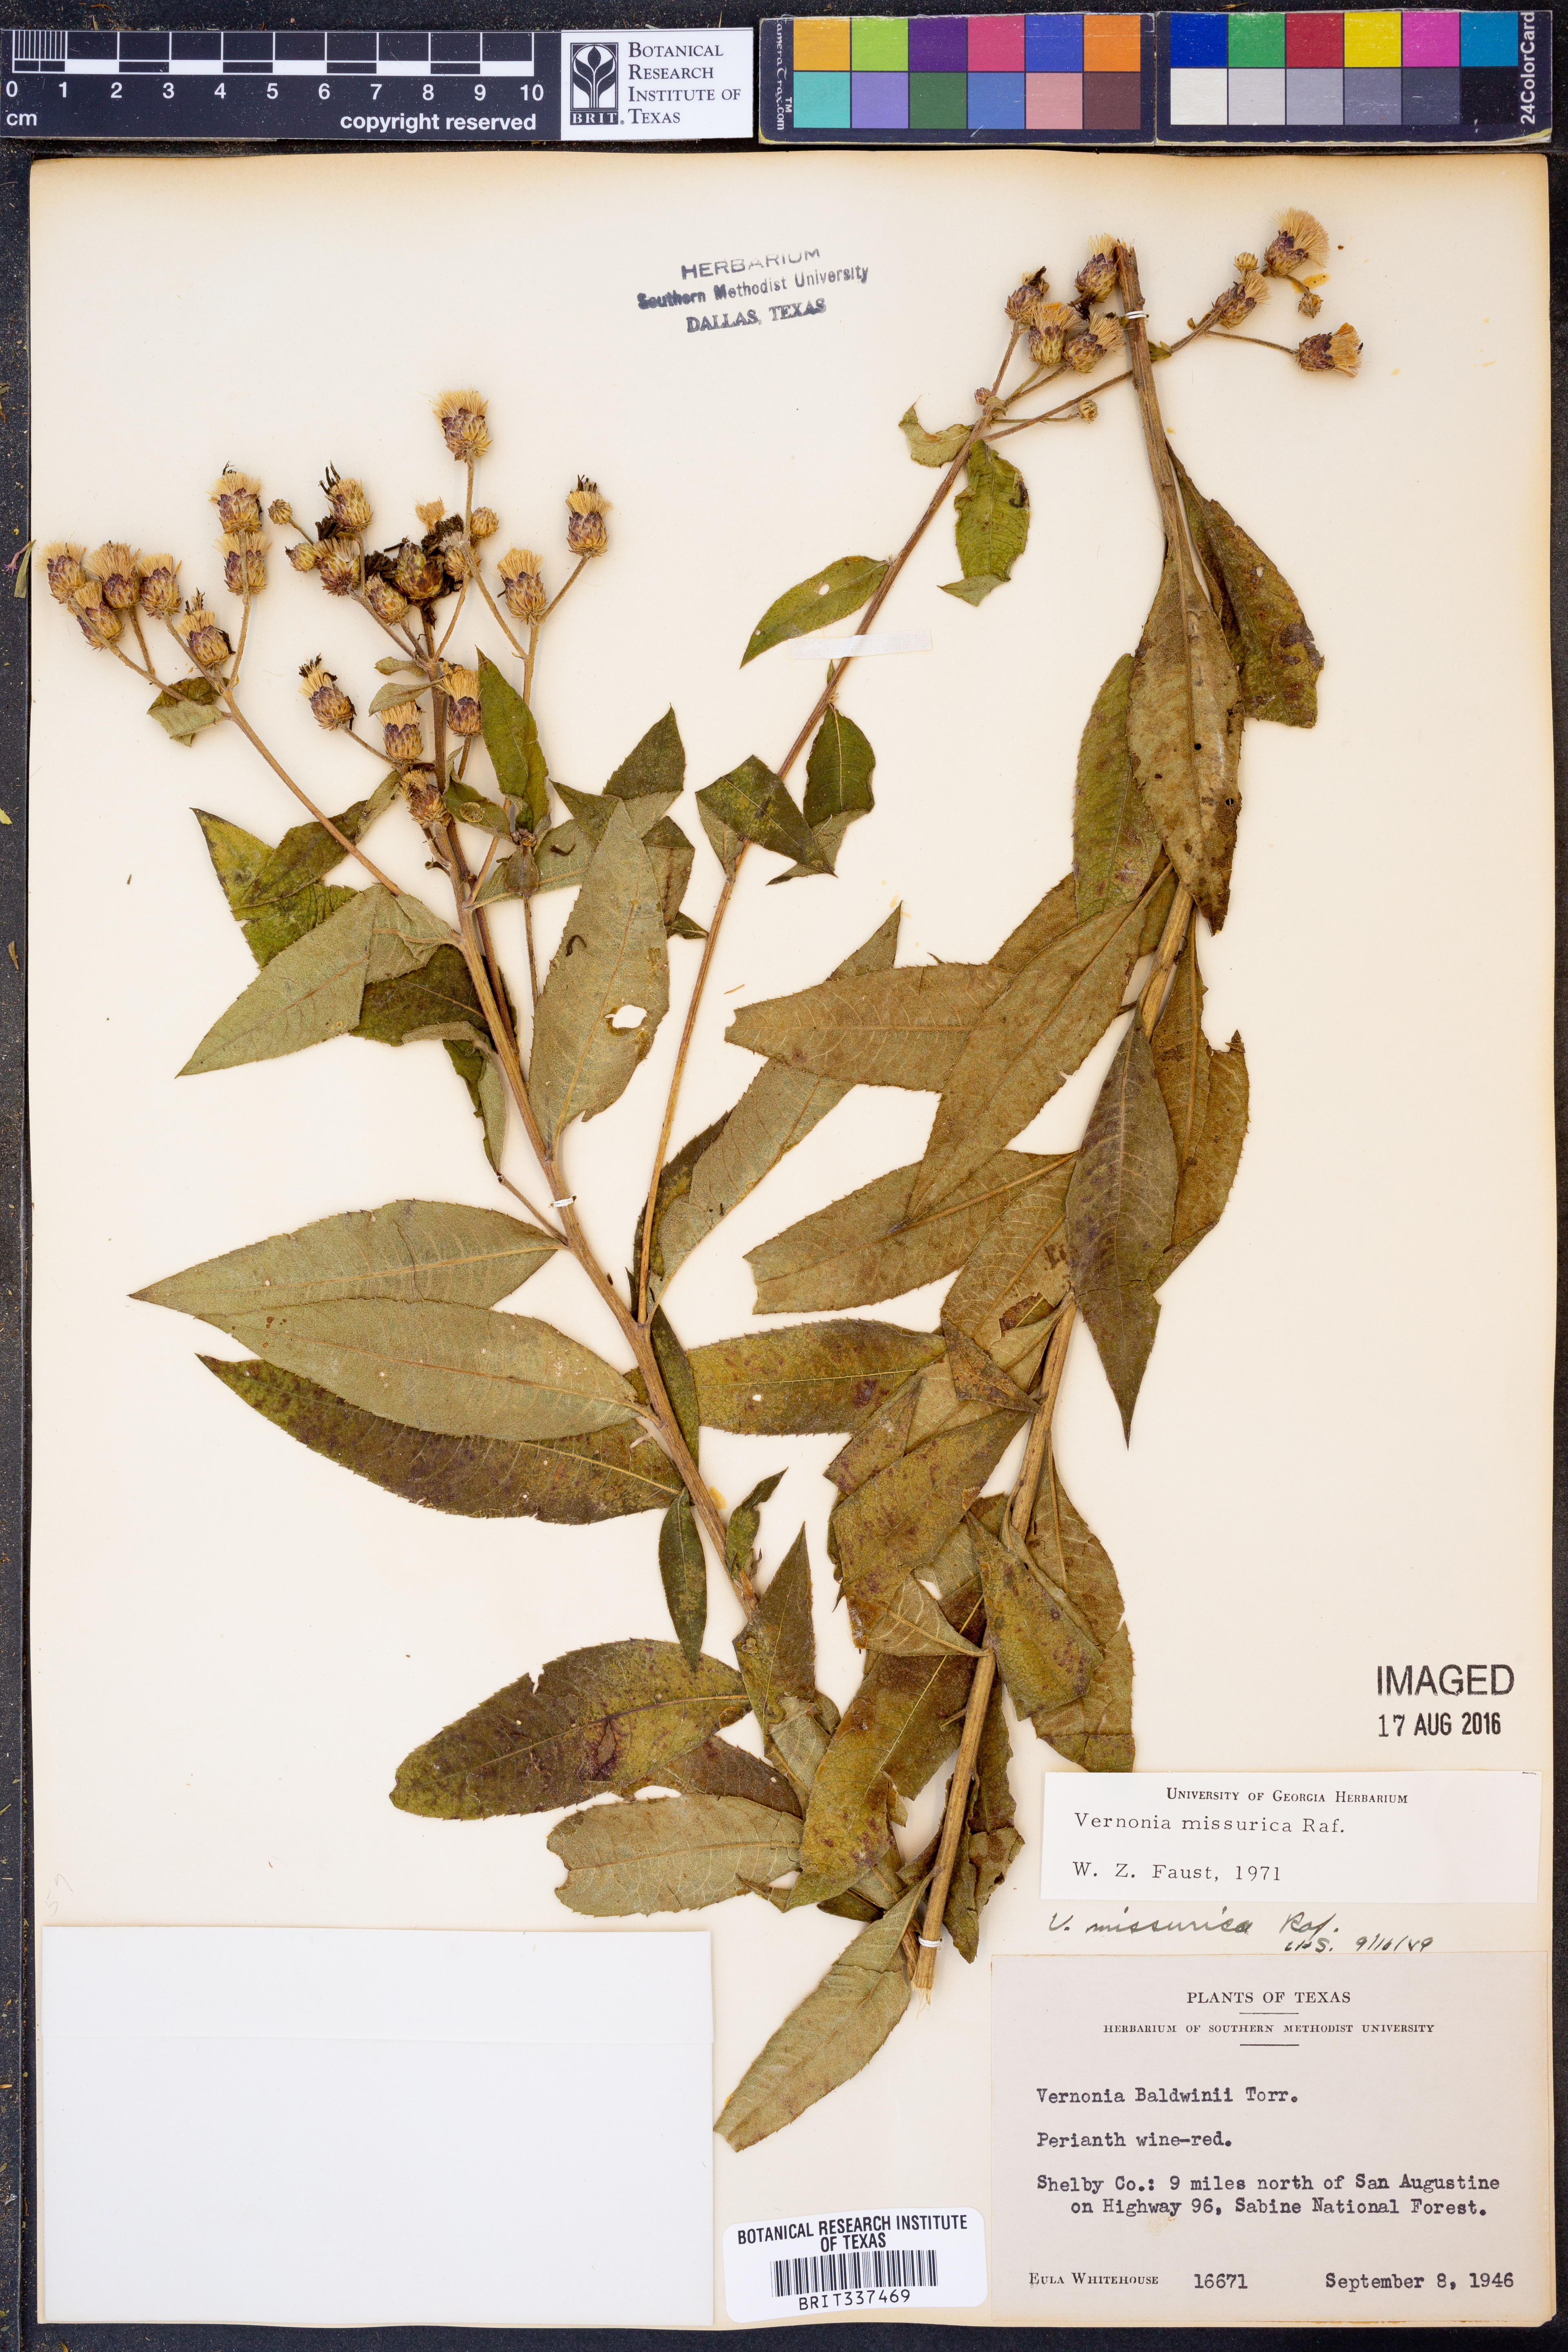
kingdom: Plantae
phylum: Tracheophyta
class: Magnoliopsida
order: Asterales
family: Asteraceae
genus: Vernonia
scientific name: Vernonia missurica
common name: Missouri ironweed
